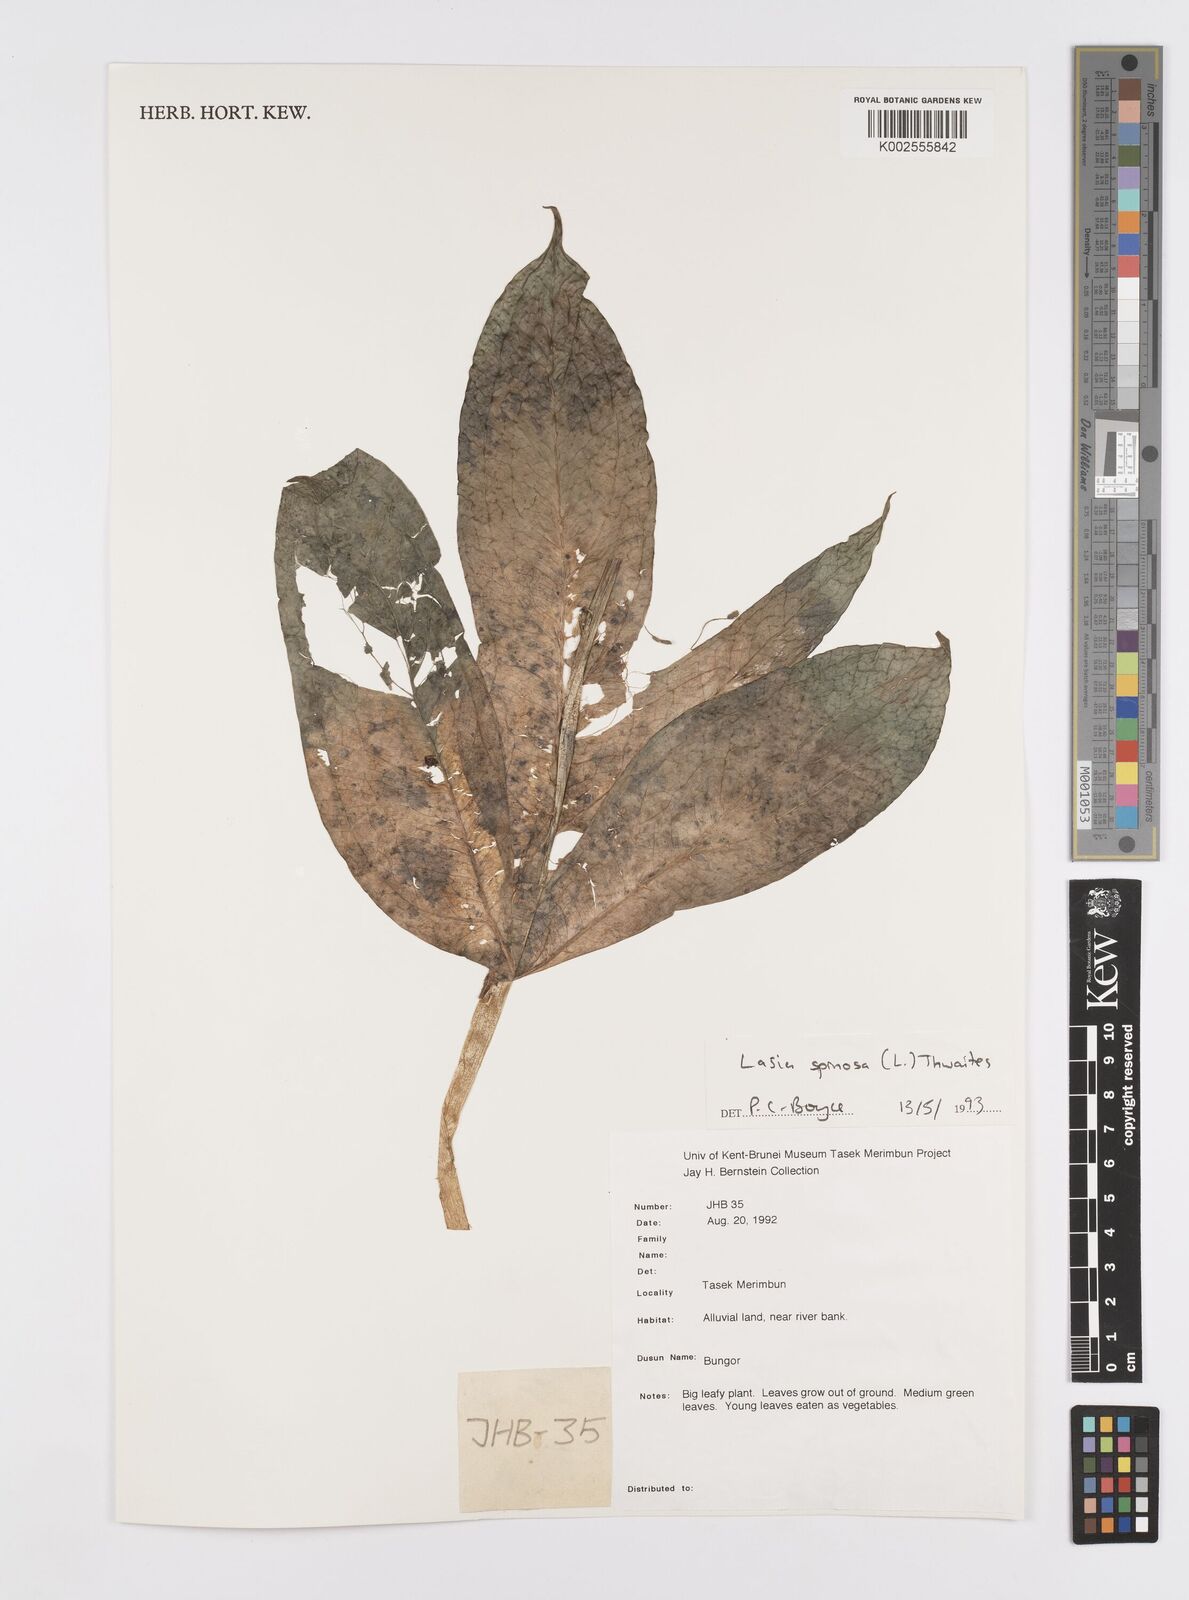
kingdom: Plantae
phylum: Tracheophyta
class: Liliopsida
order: Alismatales
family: Araceae
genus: Lasia
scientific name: Lasia spinosa
